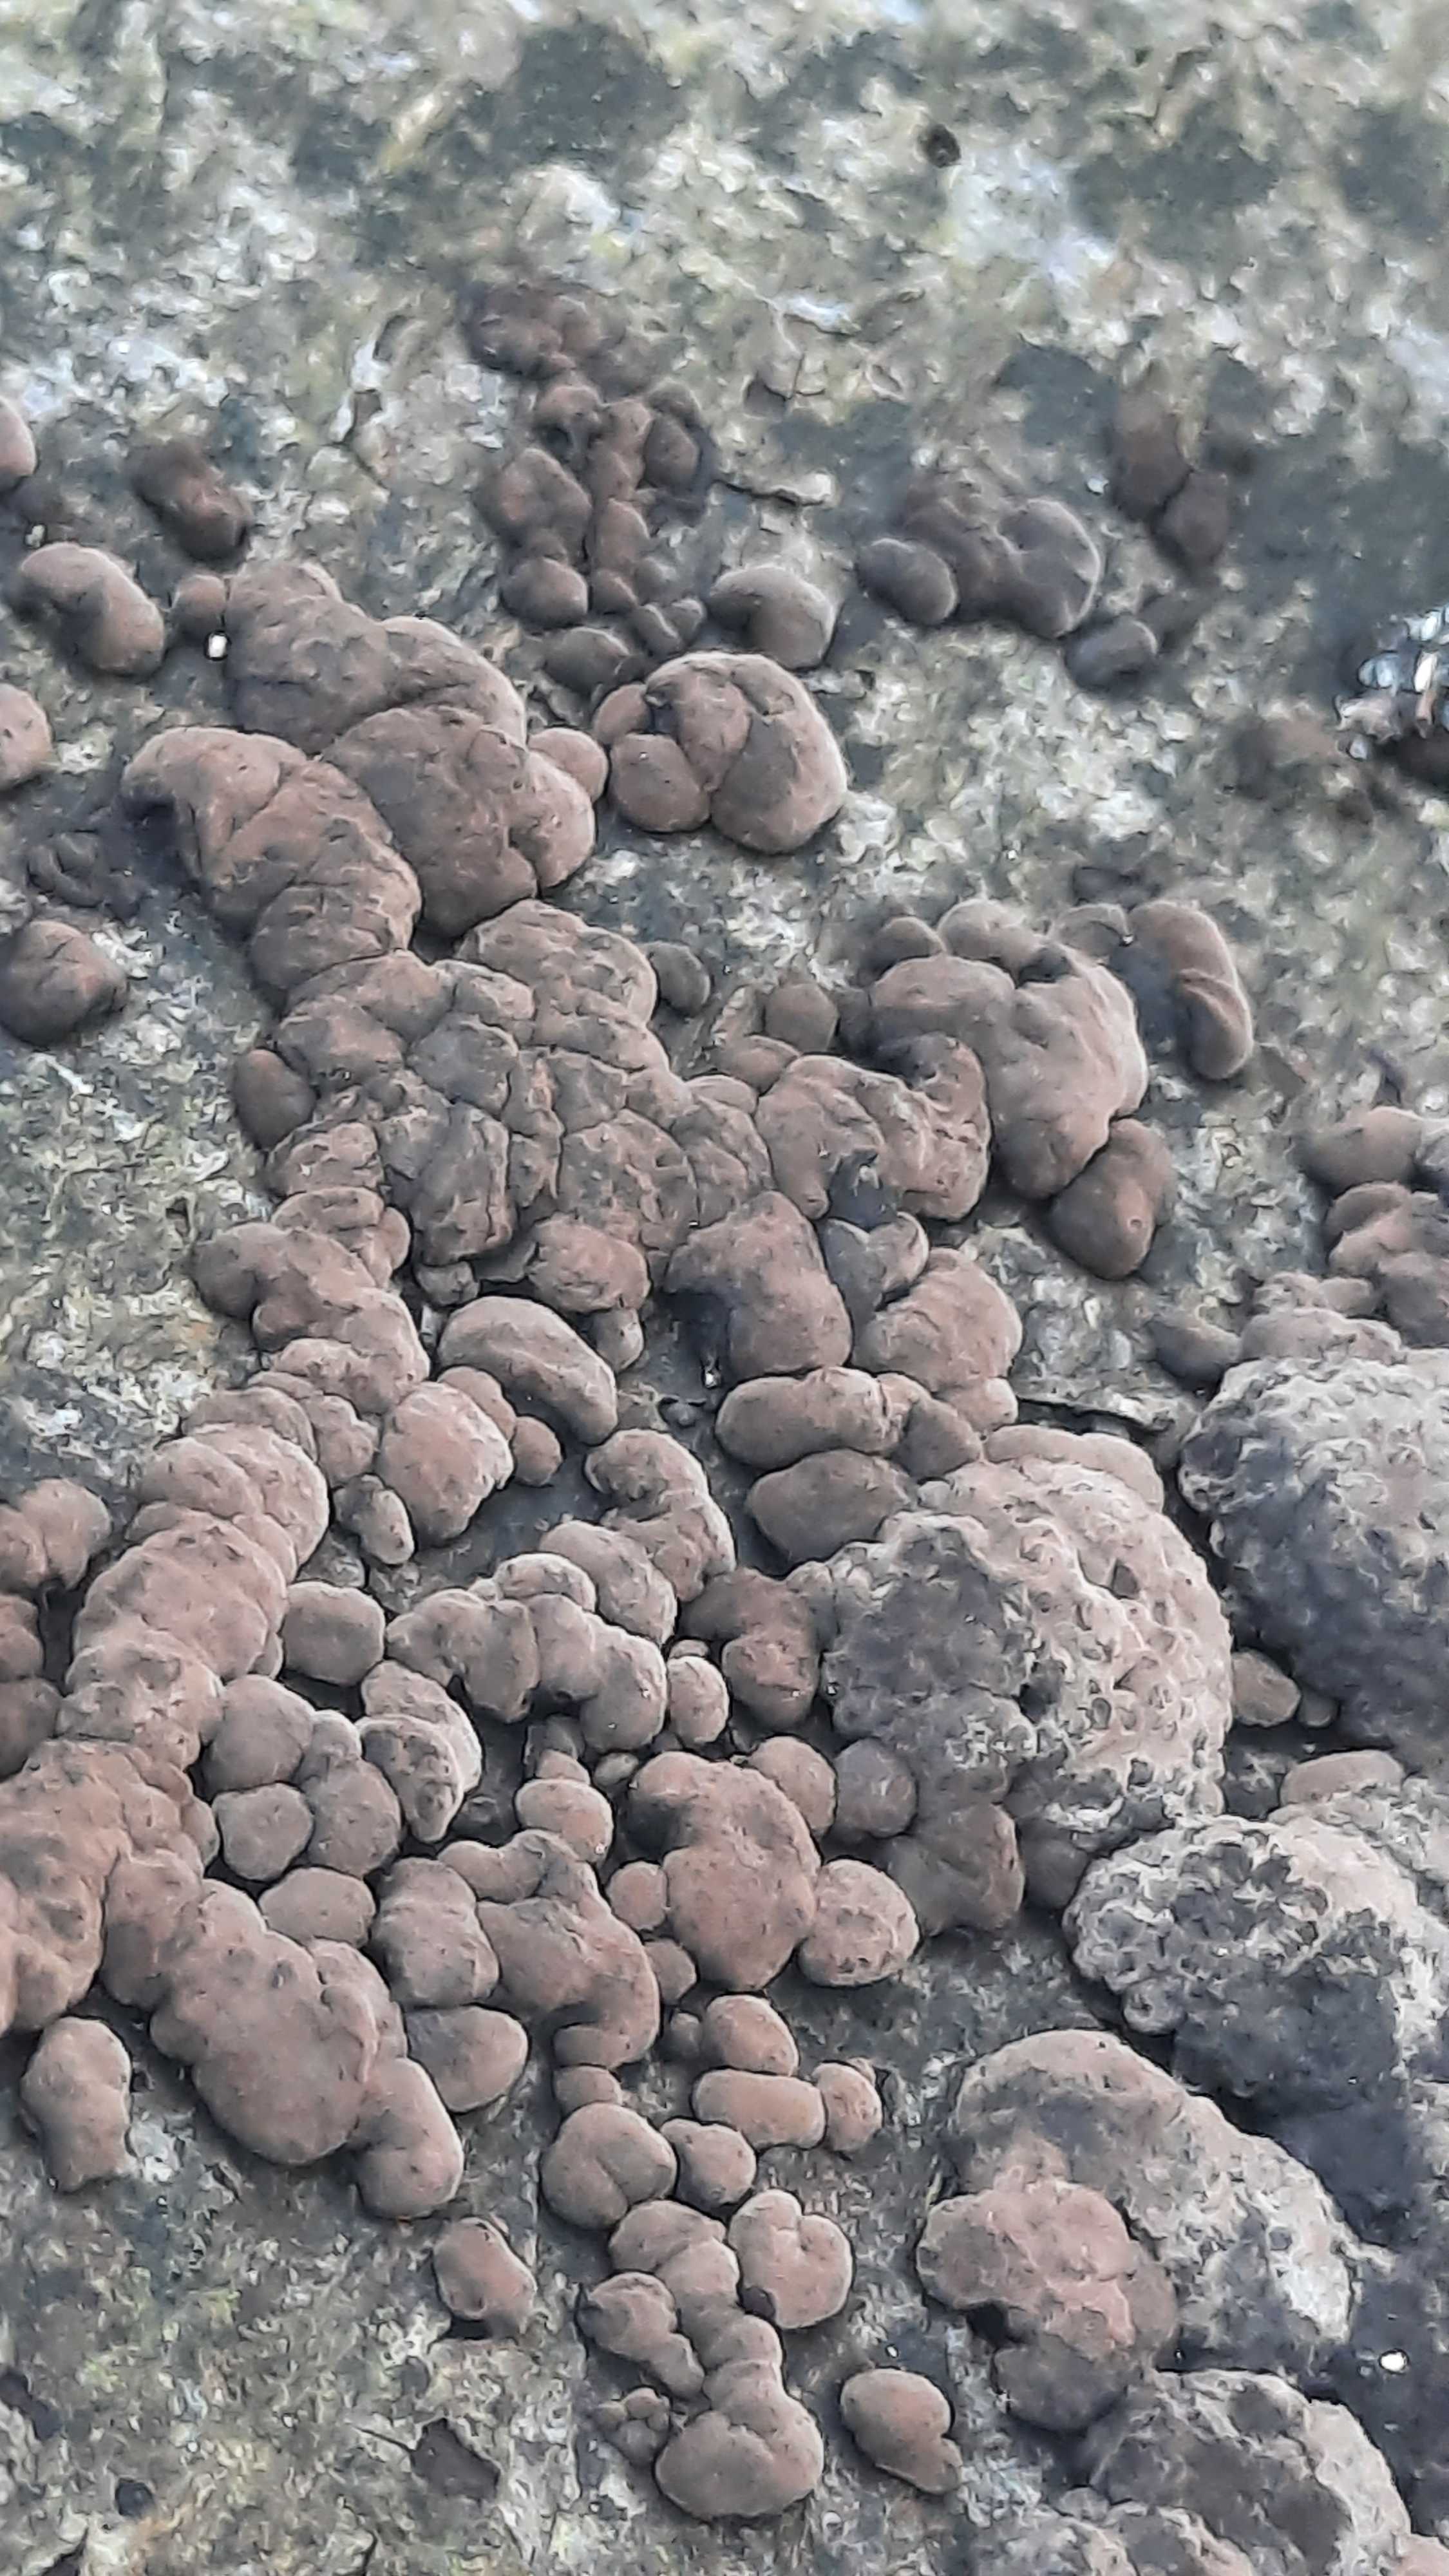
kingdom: Fungi
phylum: Ascomycota
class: Sordariomycetes
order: Xylariales
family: Hypoxylaceae
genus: Jackrogersella
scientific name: Jackrogersella cohaerens
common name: sammenflydende kulbær
